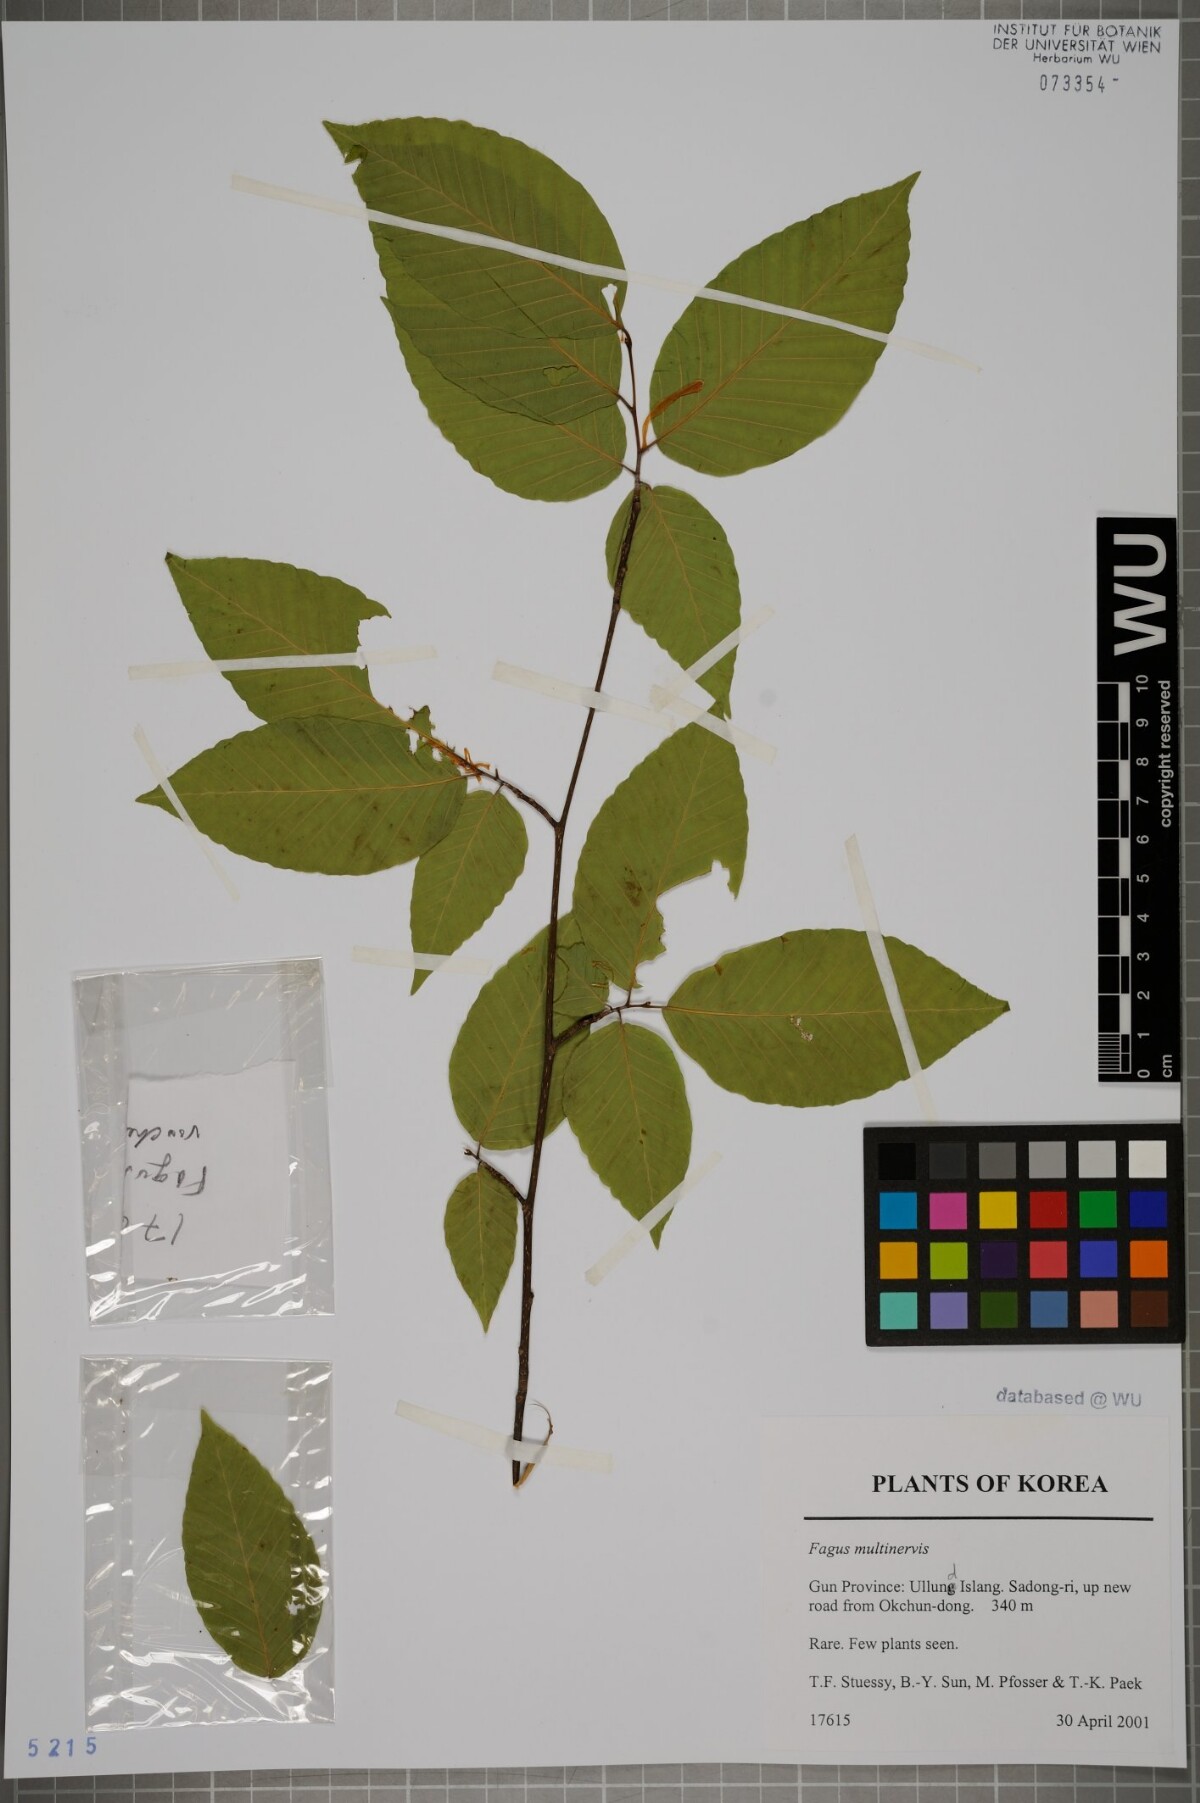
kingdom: Plantae
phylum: Tracheophyta
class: Magnoliopsida
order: Fagales
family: Fagaceae
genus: Fagus
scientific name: Fagus multinervis
